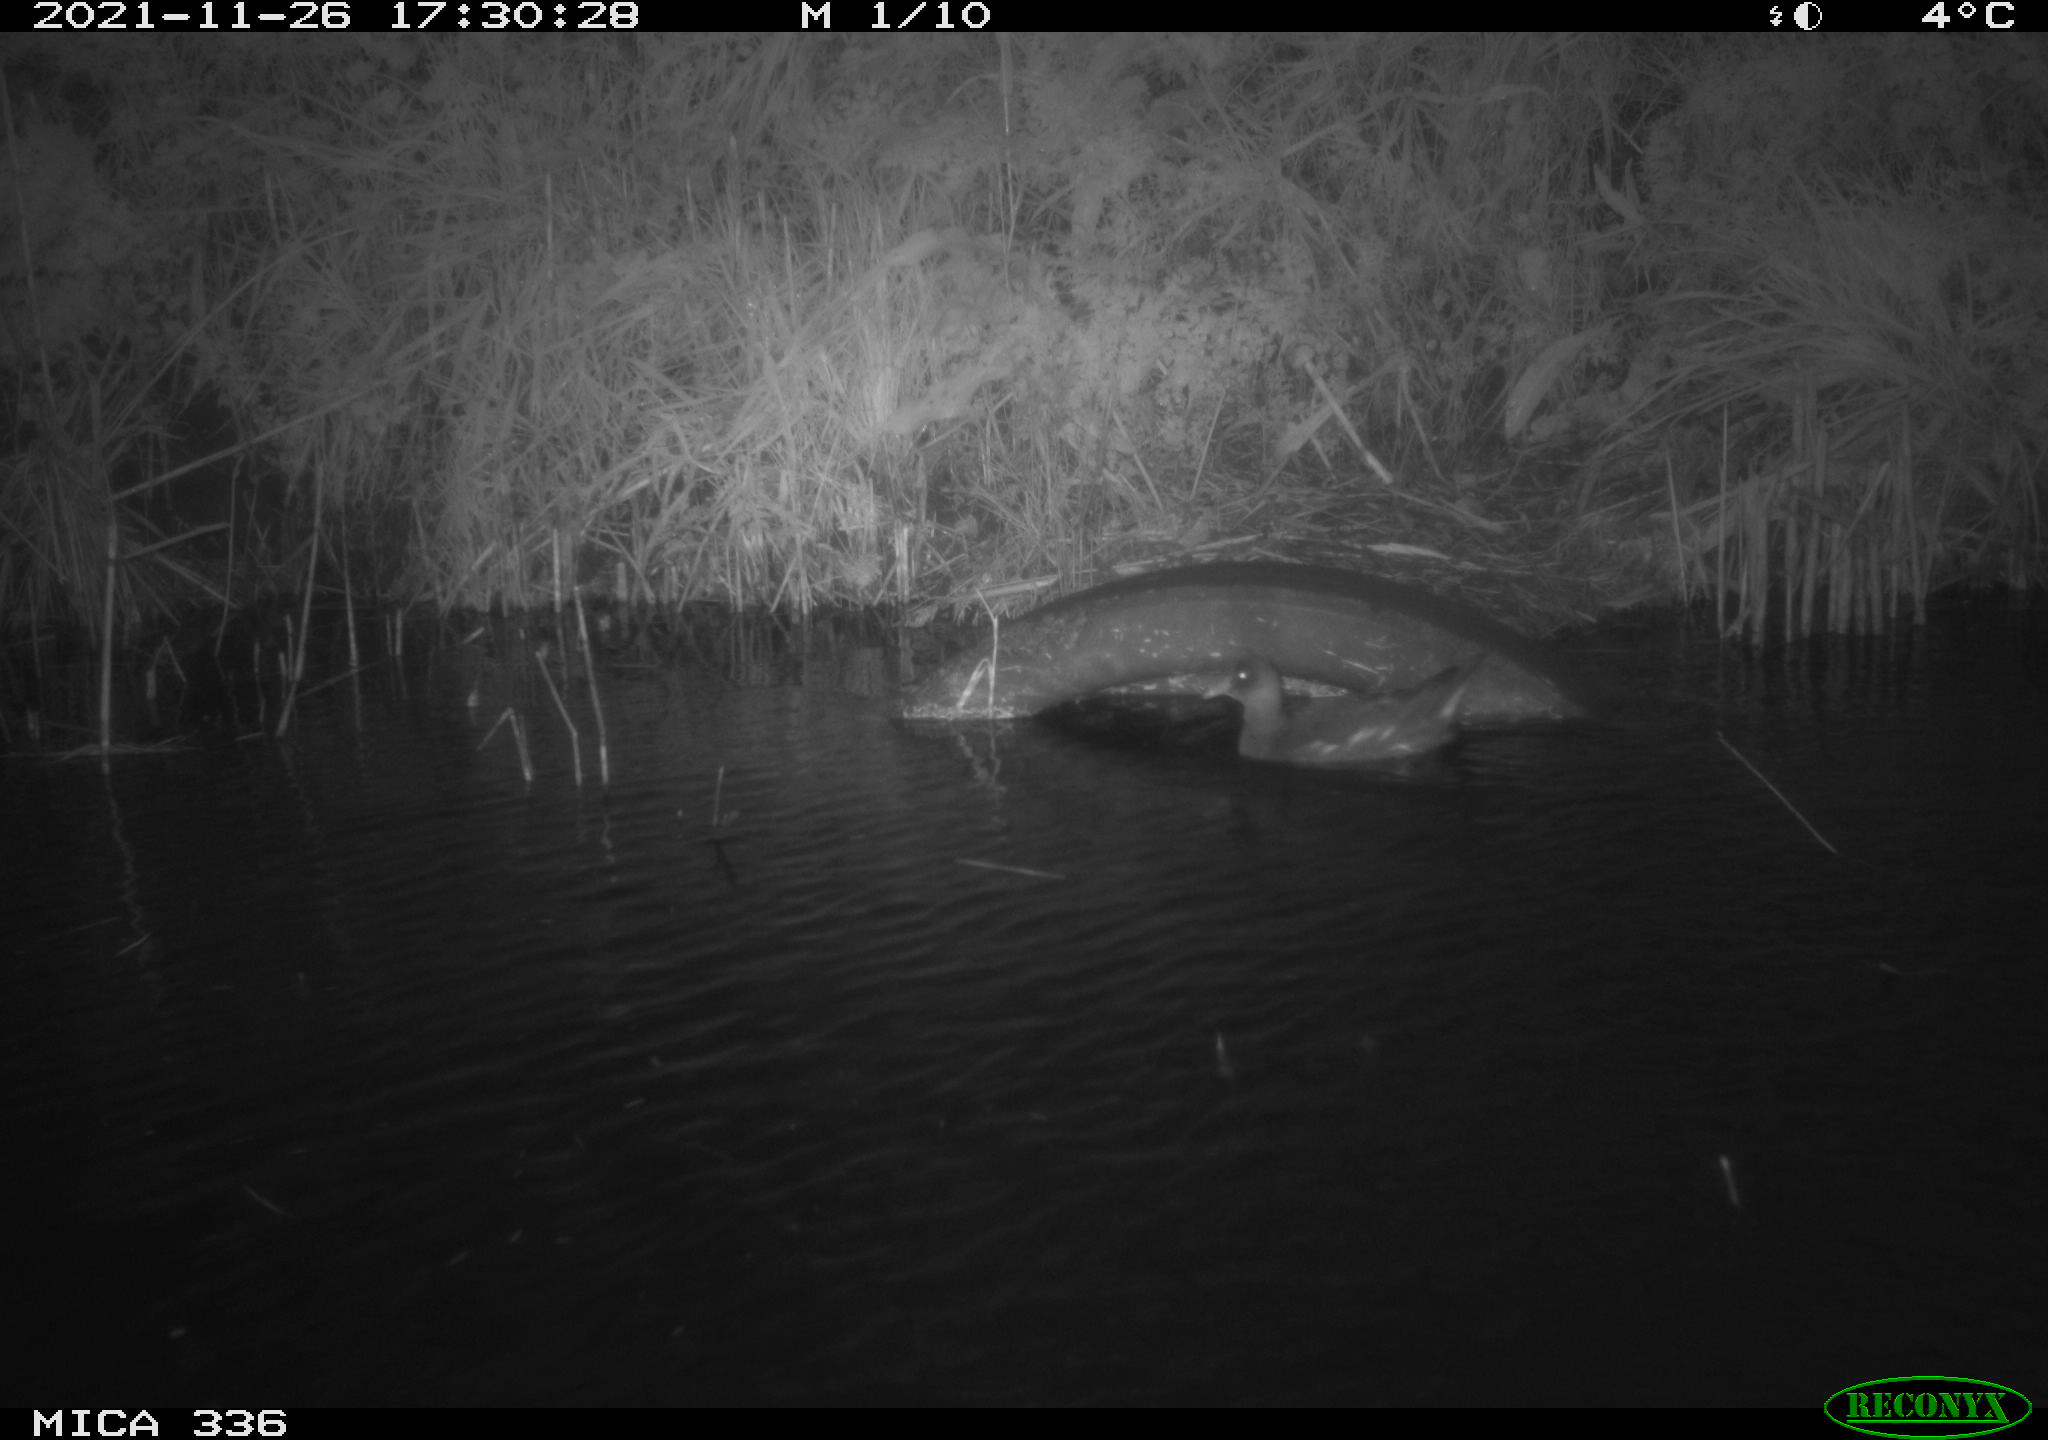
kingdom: Animalia
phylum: Chordata
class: Aves
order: Gruiformes
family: Rallidae
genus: Gallinula
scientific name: Gallinula chloropus
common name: Common moorhen
